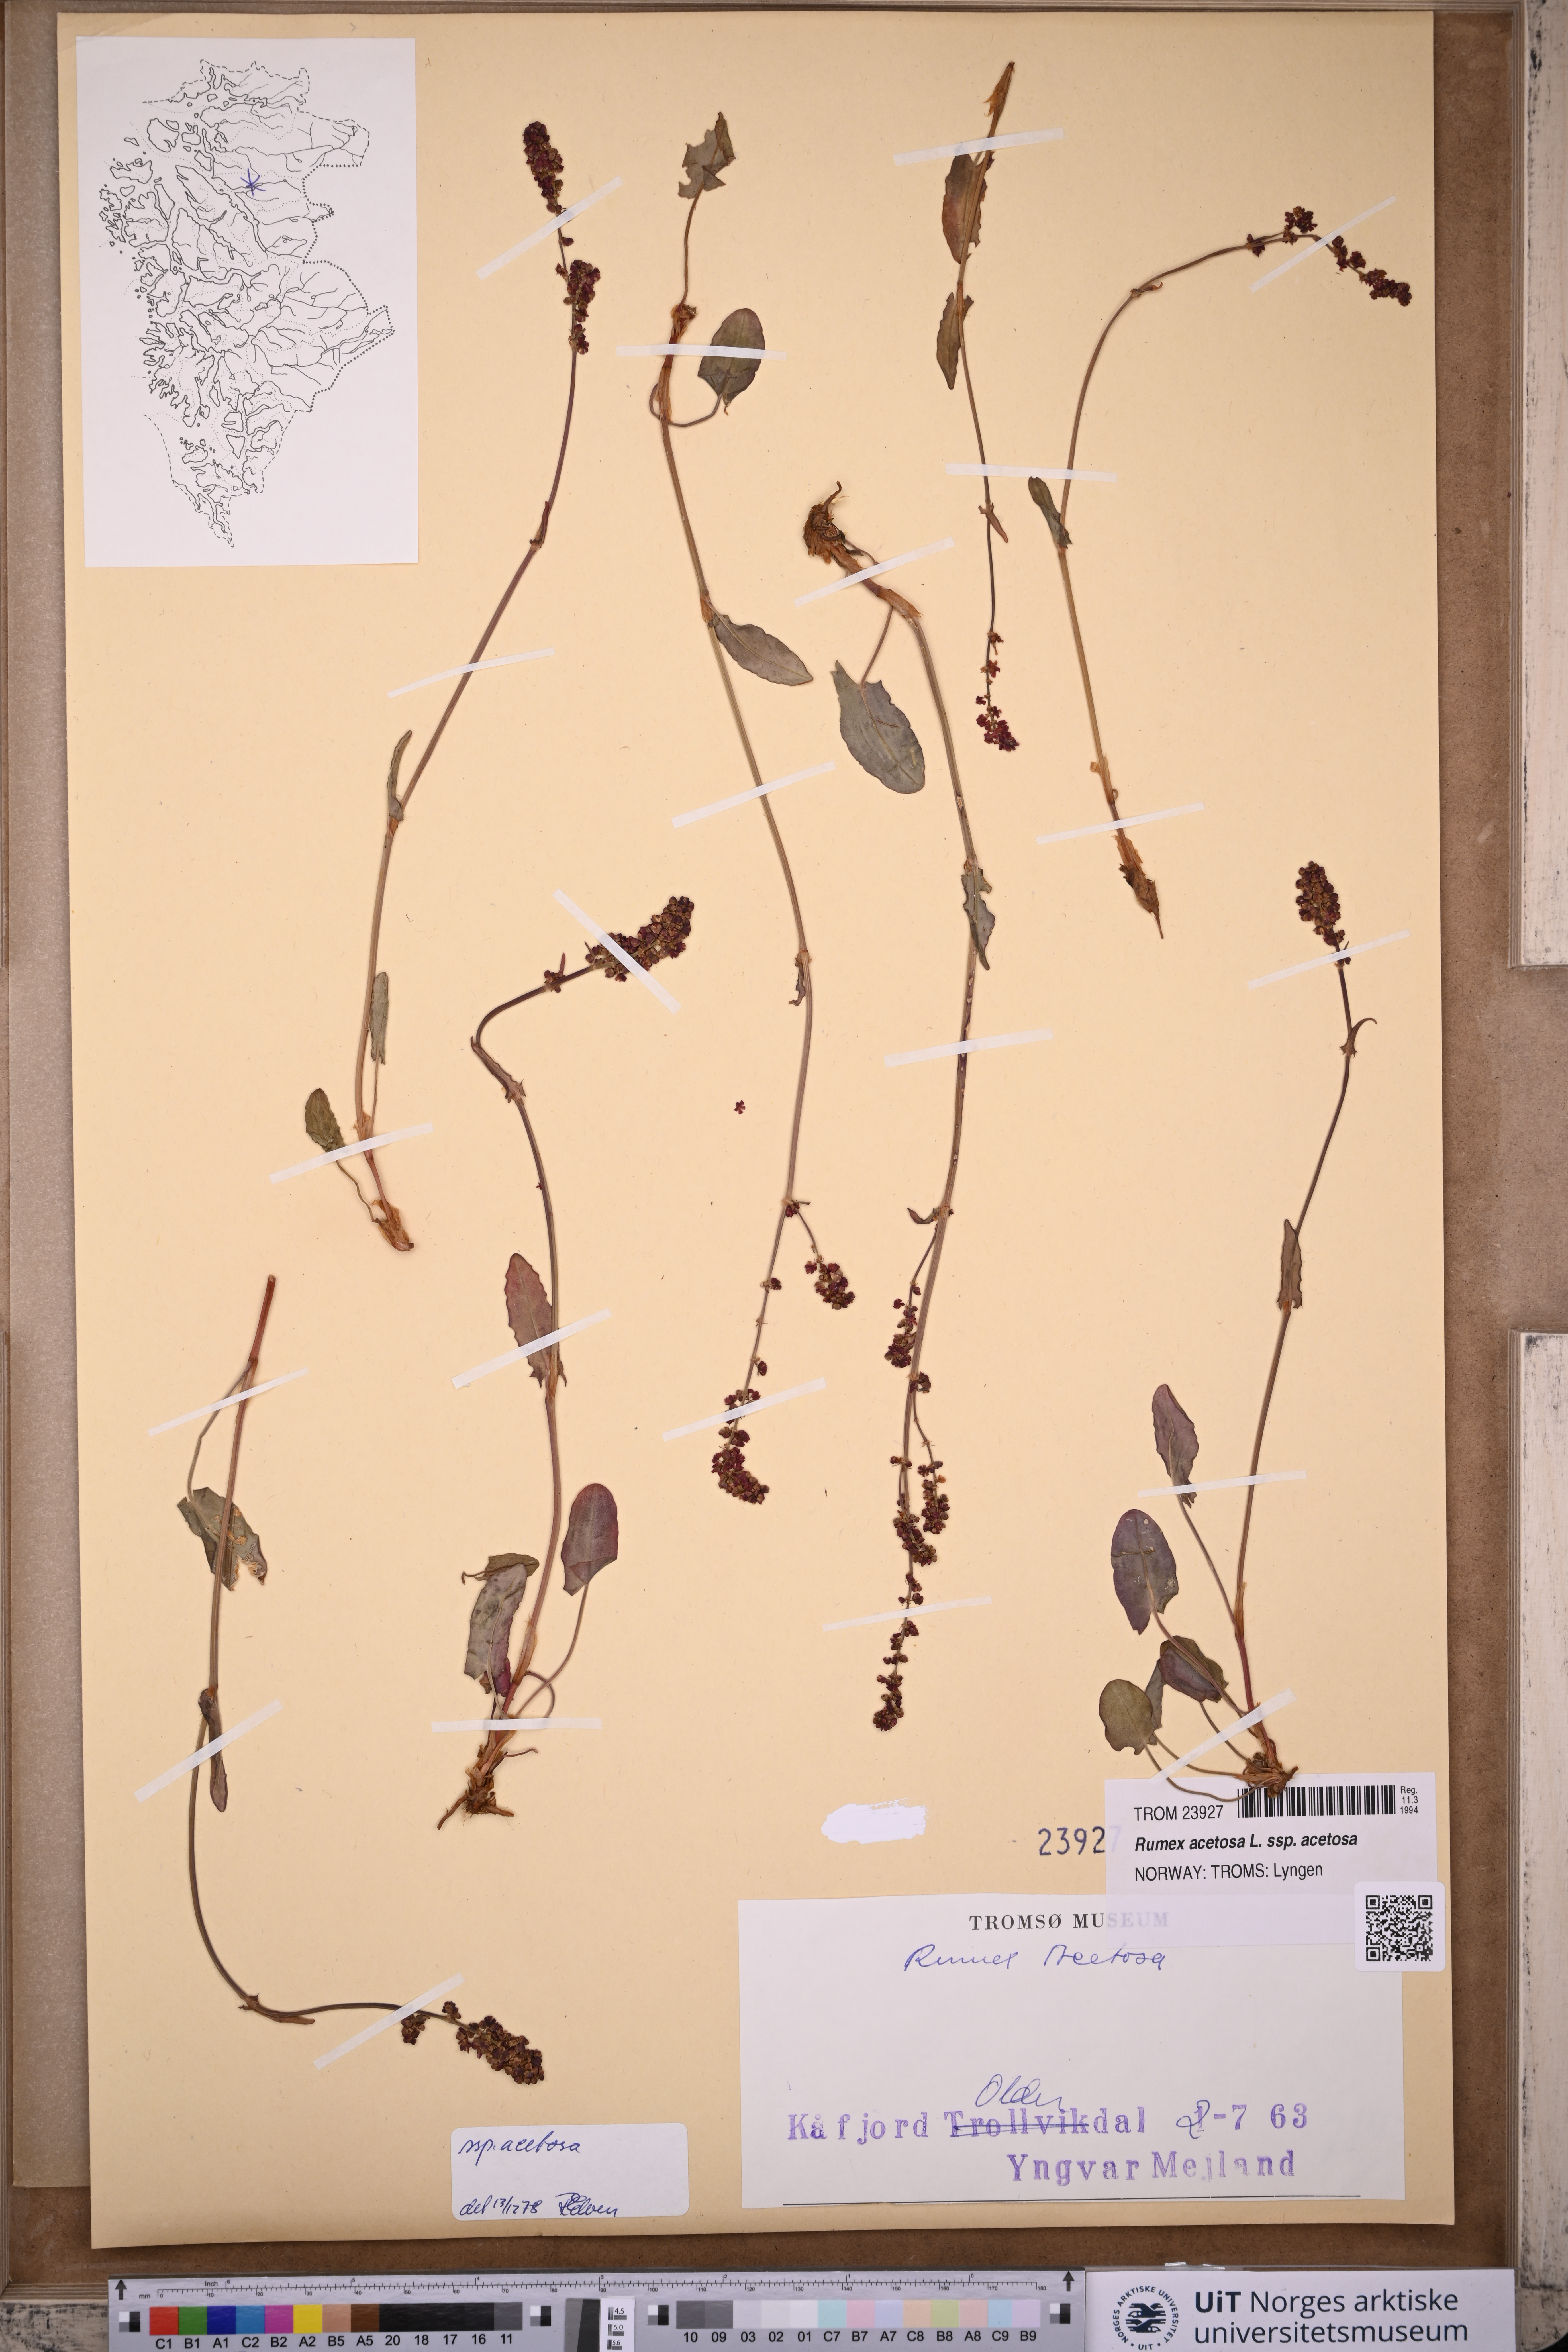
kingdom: Plantae
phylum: Tracheophyta
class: Magnoliopsida
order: Caryophyllales
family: Polygonaceae
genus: Rumex
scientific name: Rumex acetosa
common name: Garden sorrel
